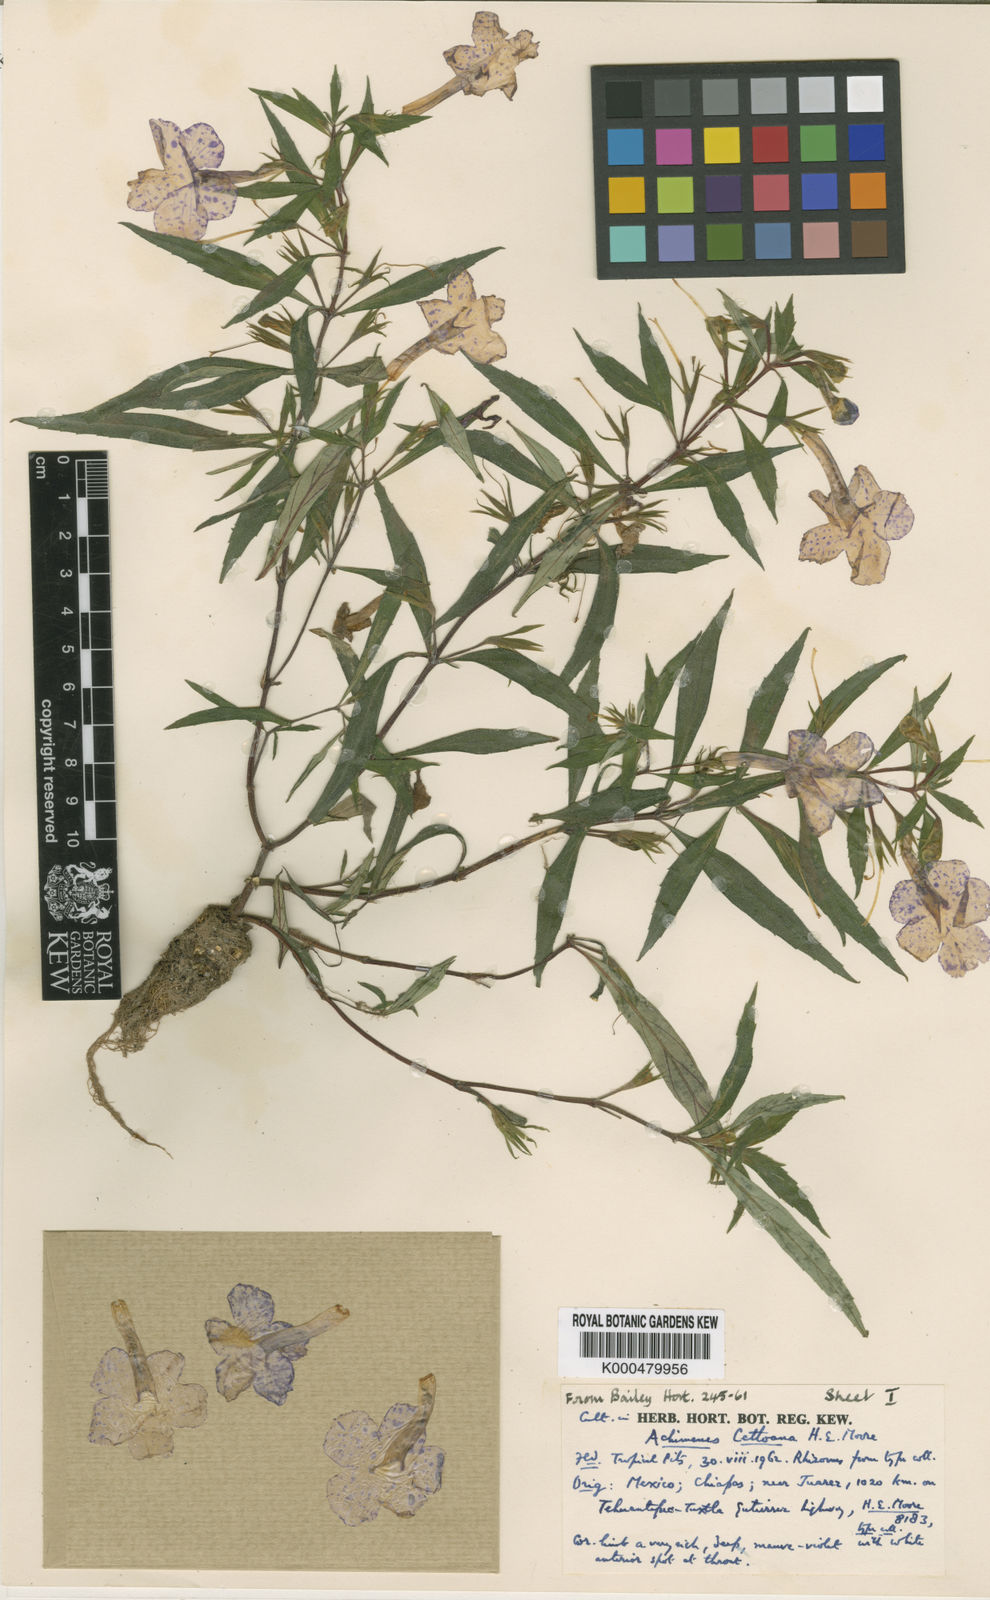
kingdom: Plantae
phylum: Tracheophyta
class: Magnoliopsida
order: Lamiales
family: Gesneriaceae
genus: Achimenes
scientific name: Achimenes cettoana
